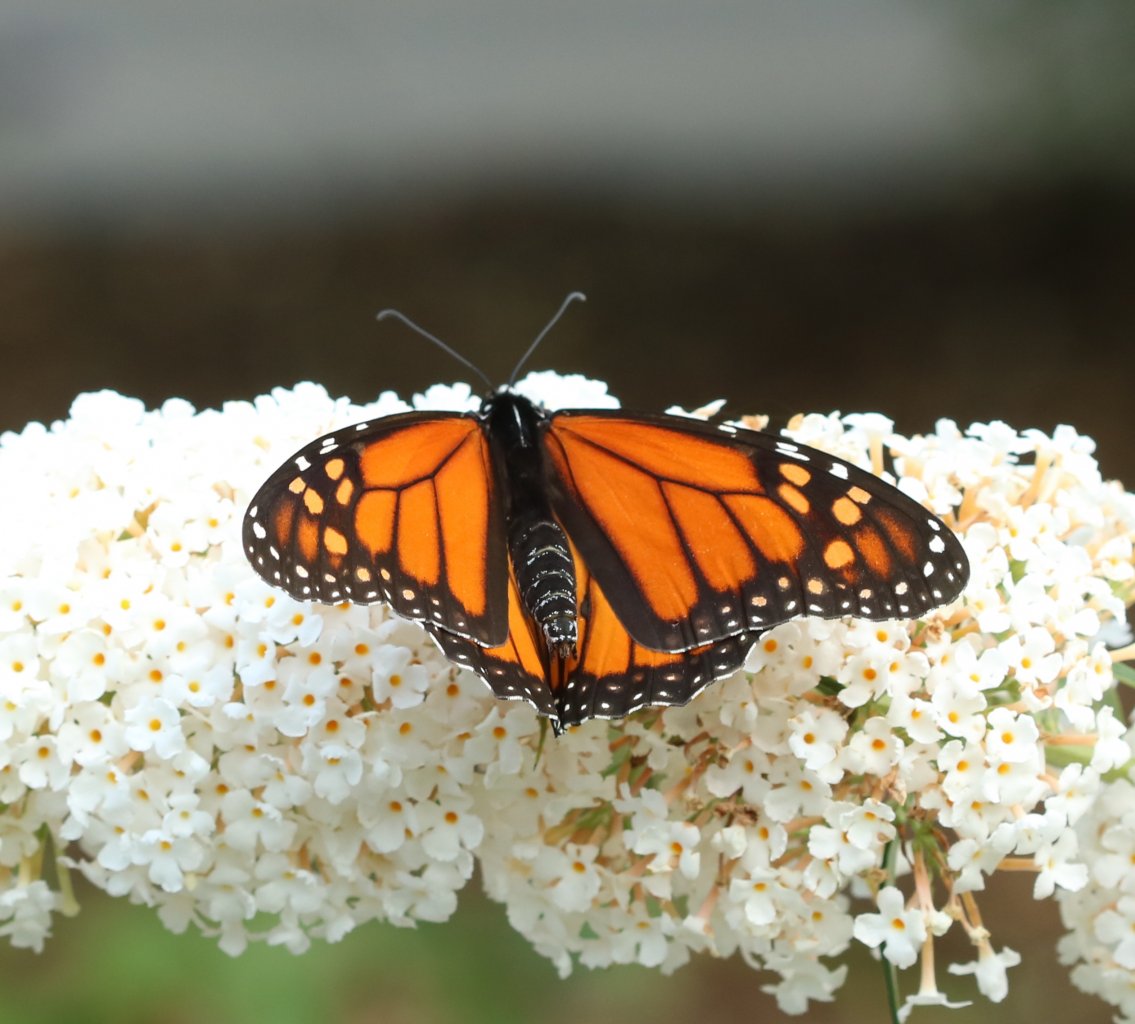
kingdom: Animalia
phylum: Arthropoda
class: Insecta
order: Lepidoptera
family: Nymphalidae
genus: Danaus
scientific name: Danaus plexippus
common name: Monarch
